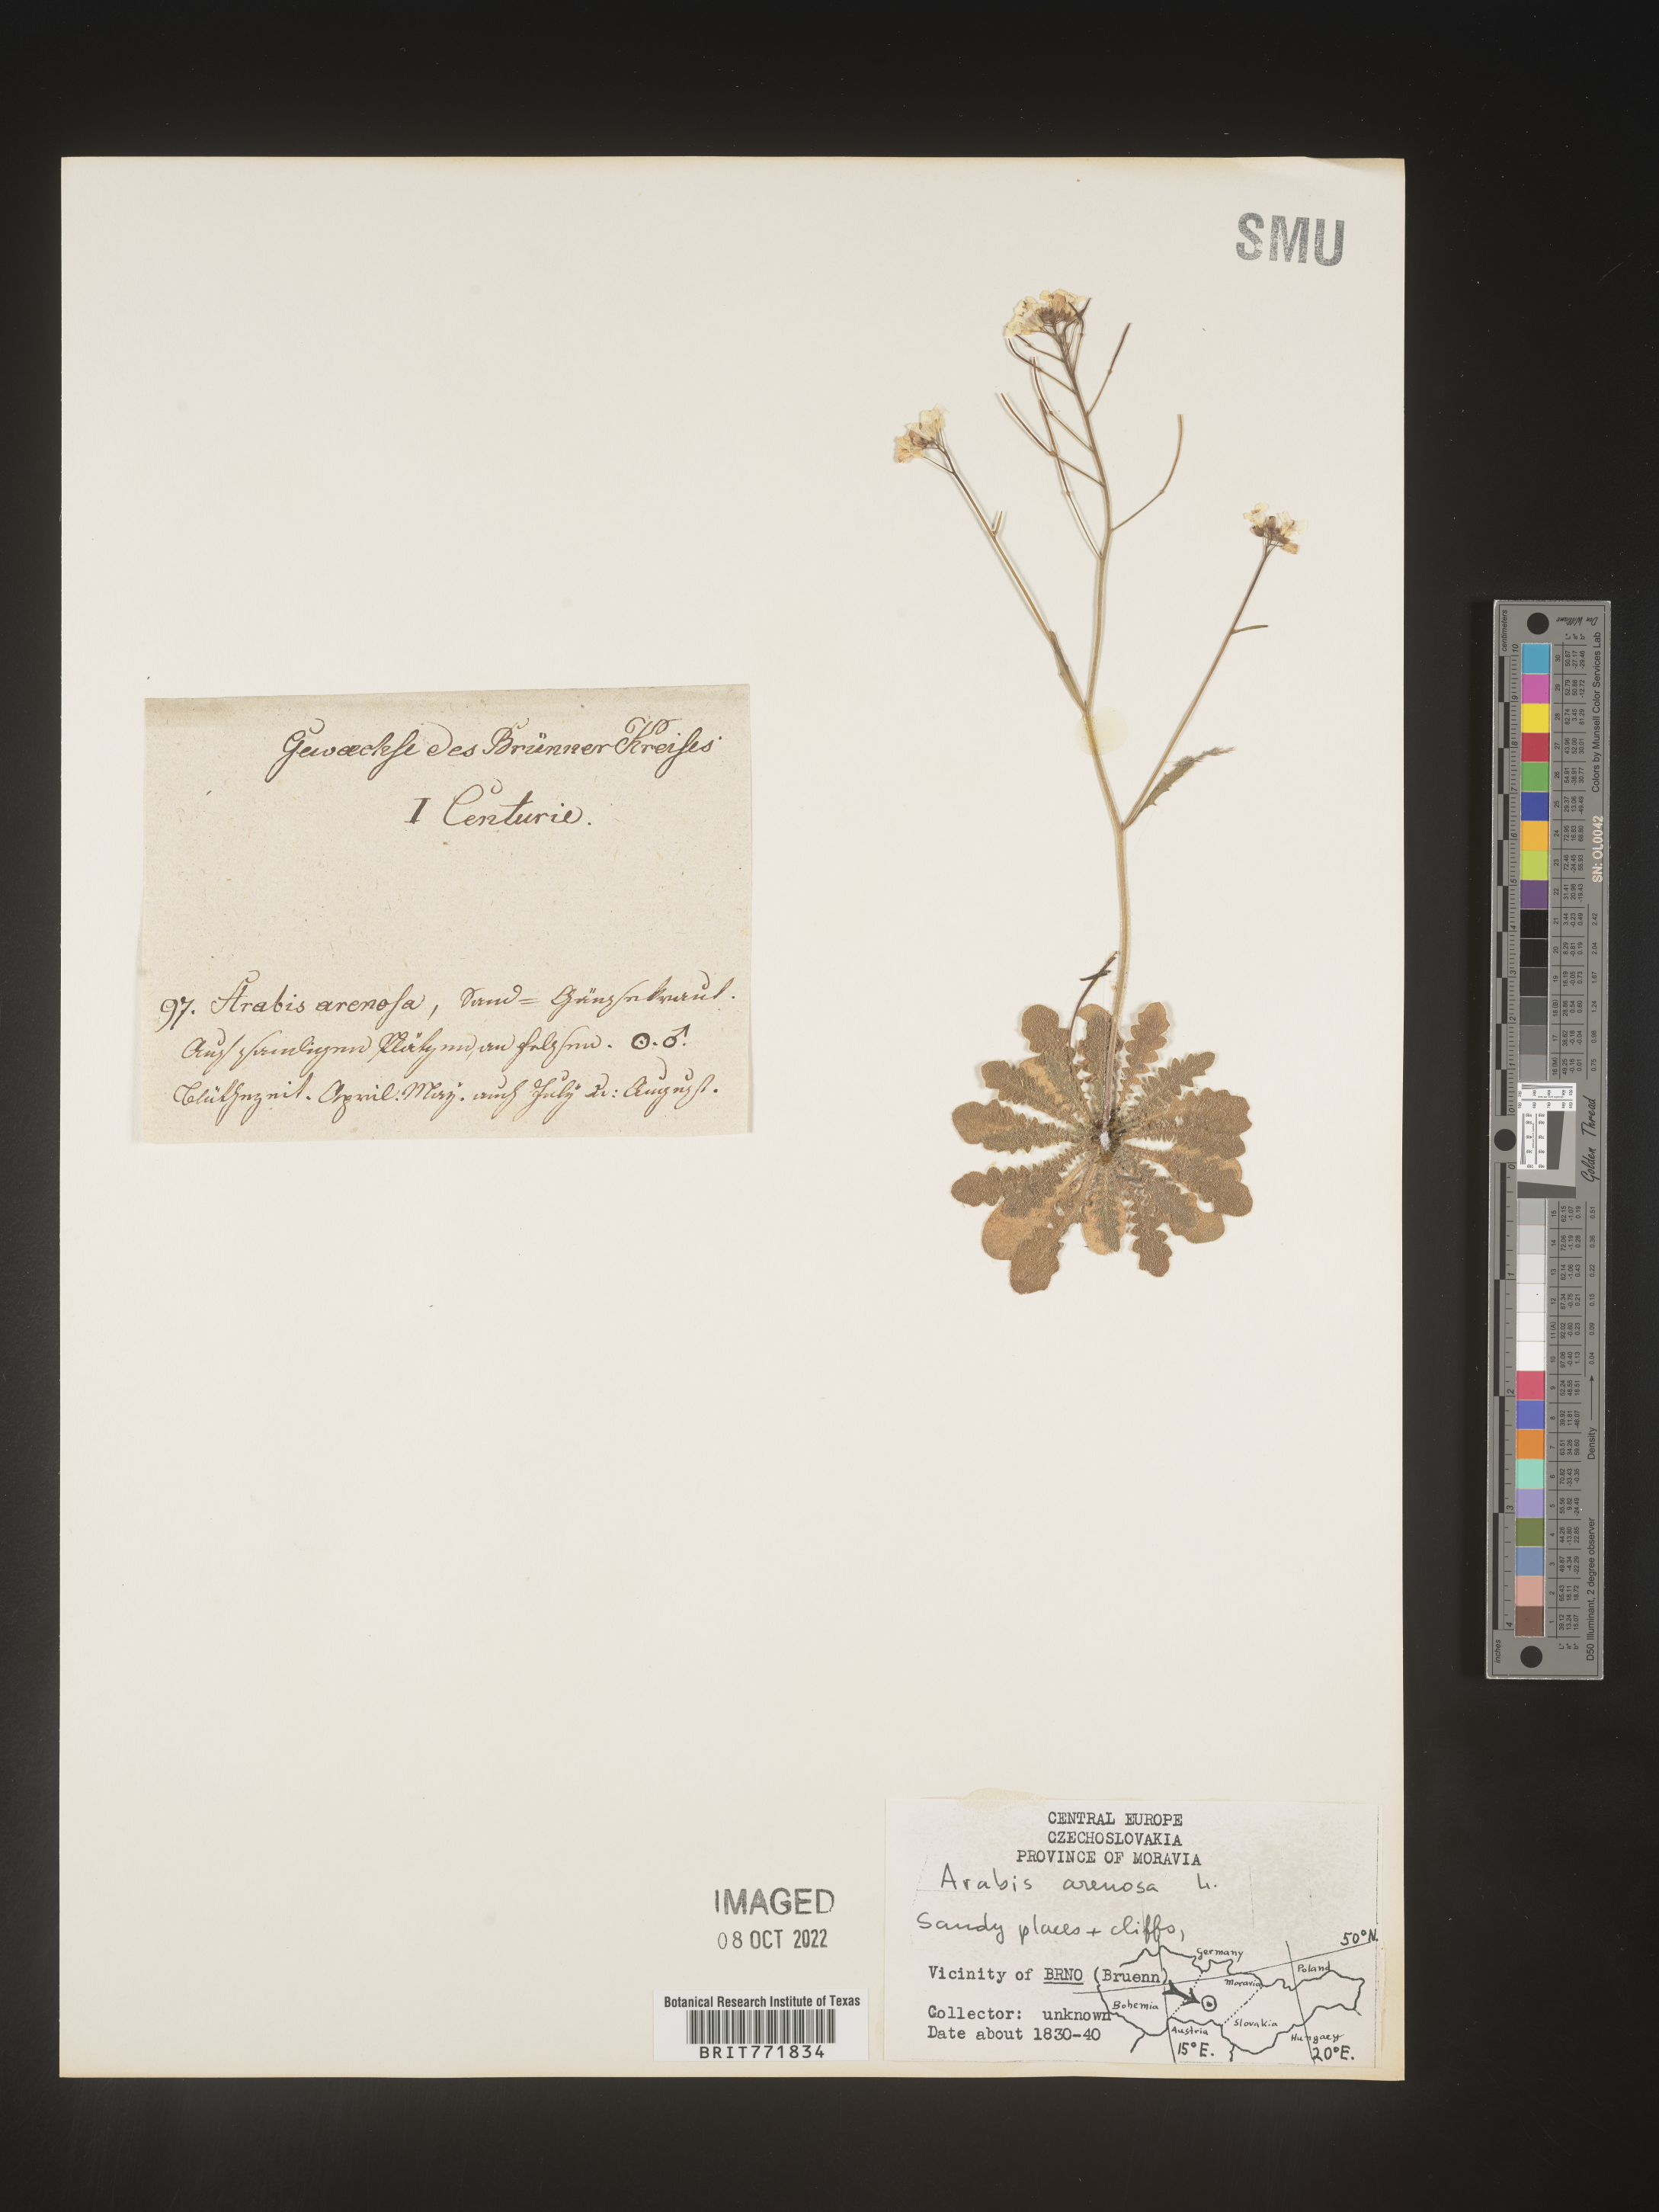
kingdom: Plantae
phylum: Tracheophyta
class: Magnoliopsida
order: Brassicales
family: Brassicaceae
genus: Arabis
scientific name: Arabis
